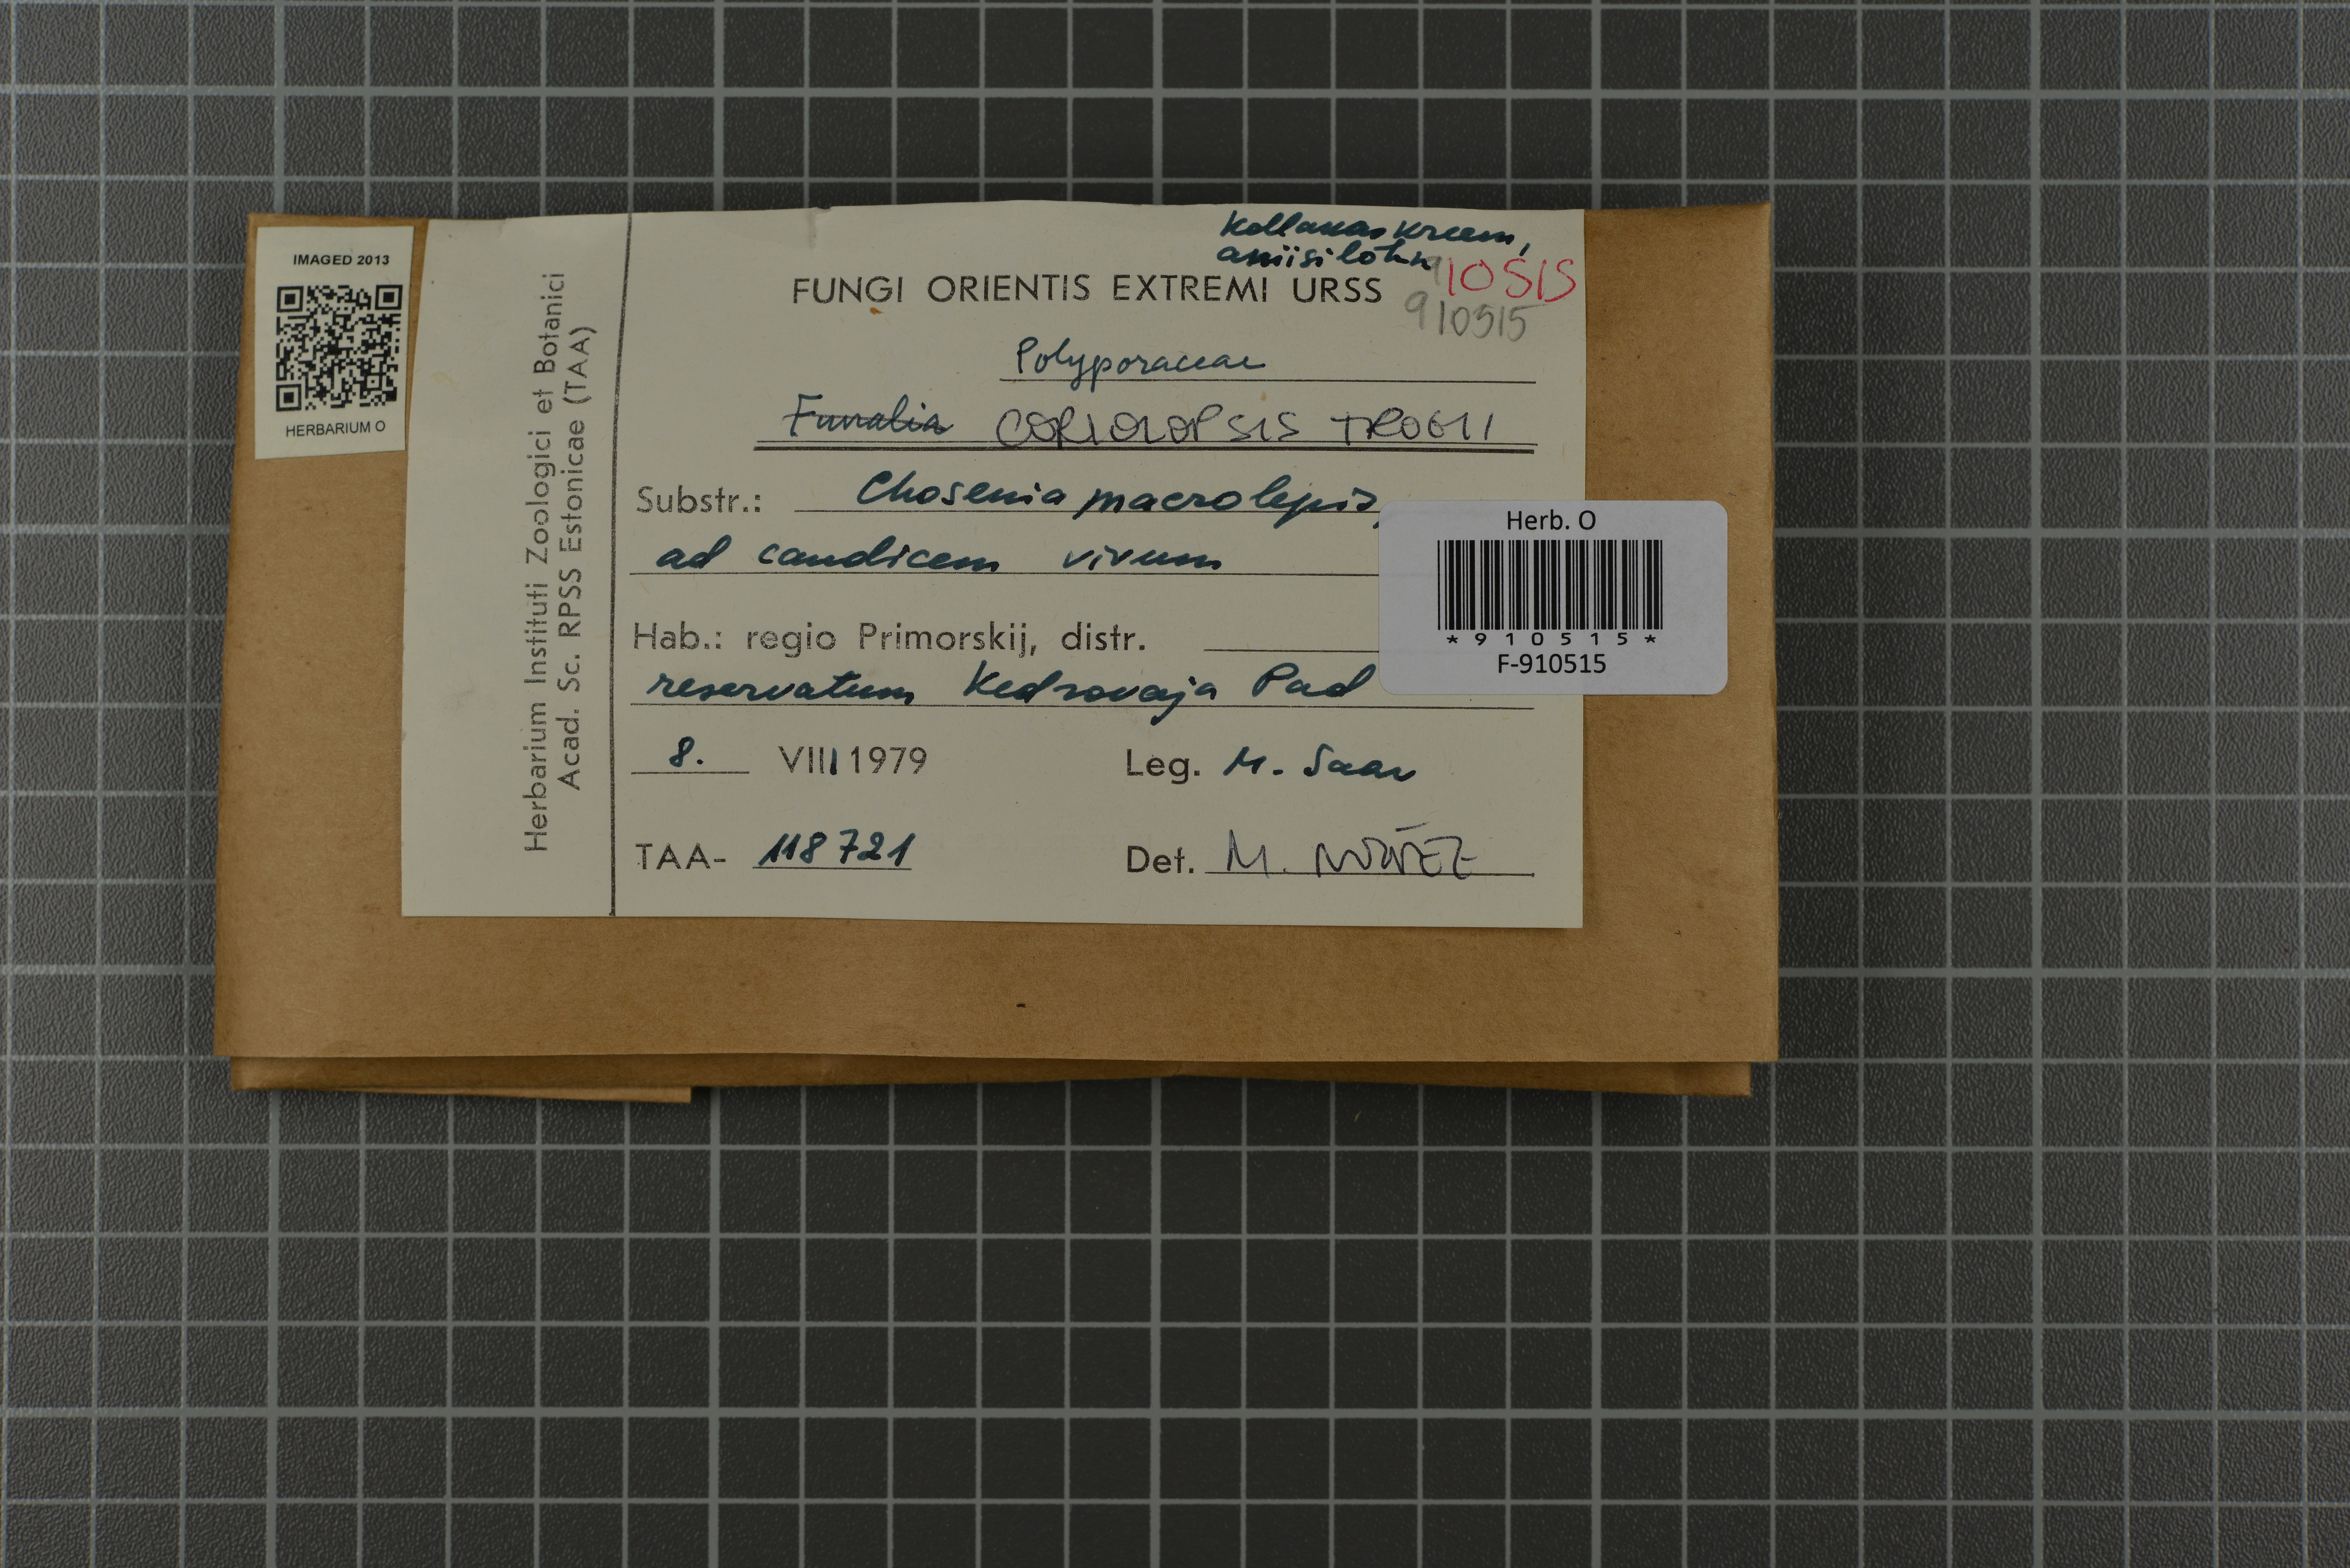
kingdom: Fungi
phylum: Basidiomycota
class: Agaricomycetes
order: Polyporales
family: Polyporaceae
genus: Trametes
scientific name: Trametes trogii
